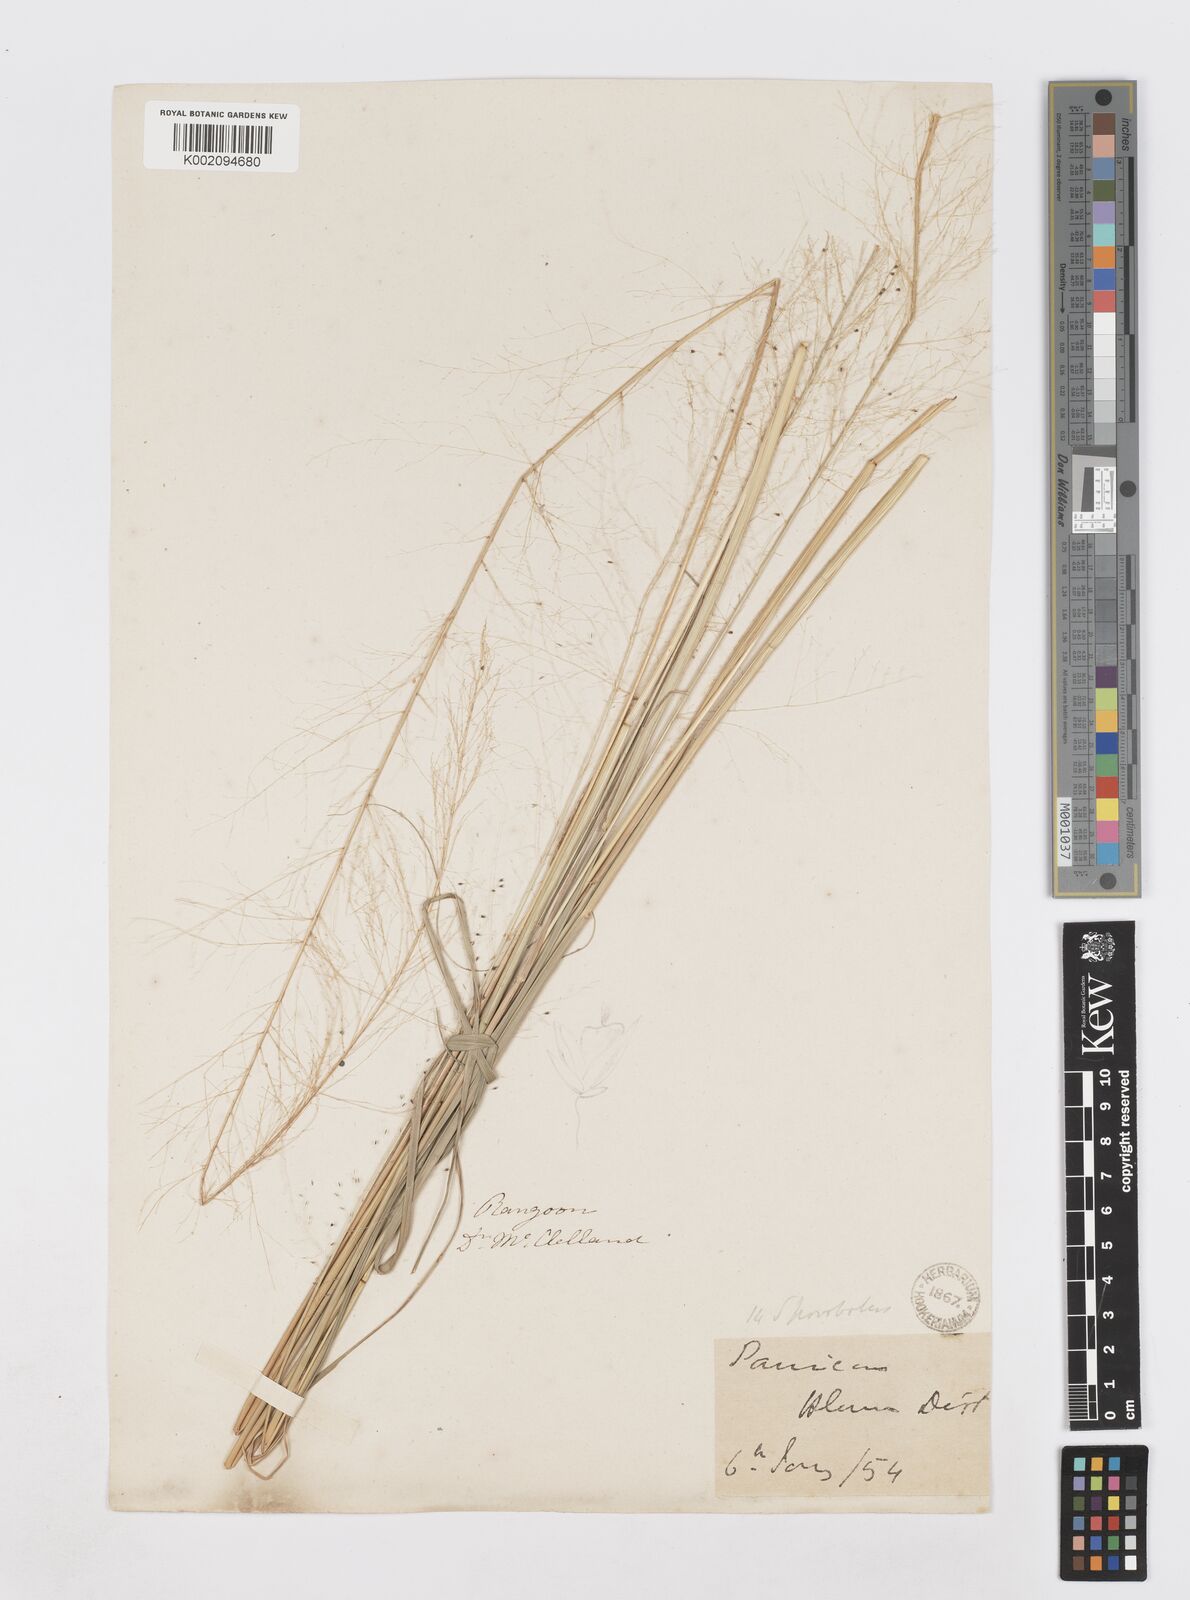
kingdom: Plantae
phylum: Tracheophyta
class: Liliopsida
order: Poales
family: Poaceae
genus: Sporobolus
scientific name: Sporobolus wallichii
